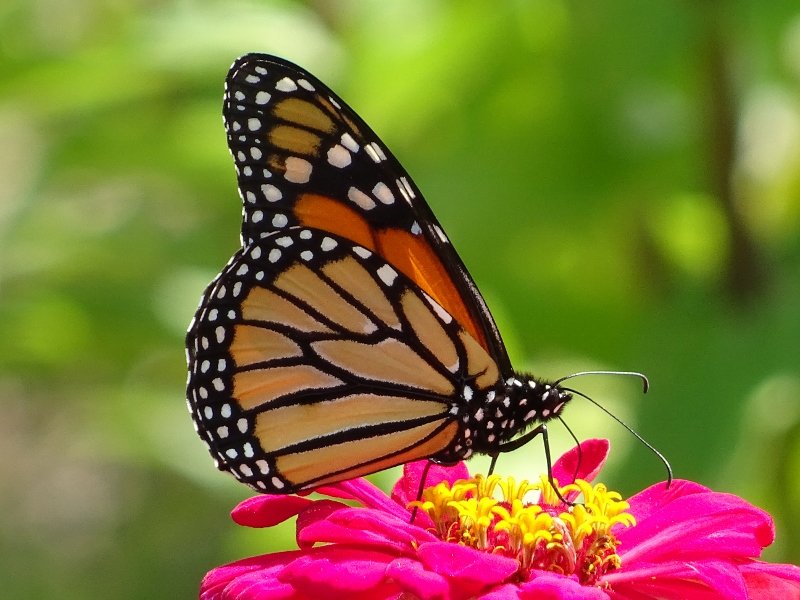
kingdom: Animalia
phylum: Arthropoda
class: Insecta
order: Lepidoptera
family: Nymphalidae
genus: Danaus
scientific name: Danaus plexippus
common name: Monarch
